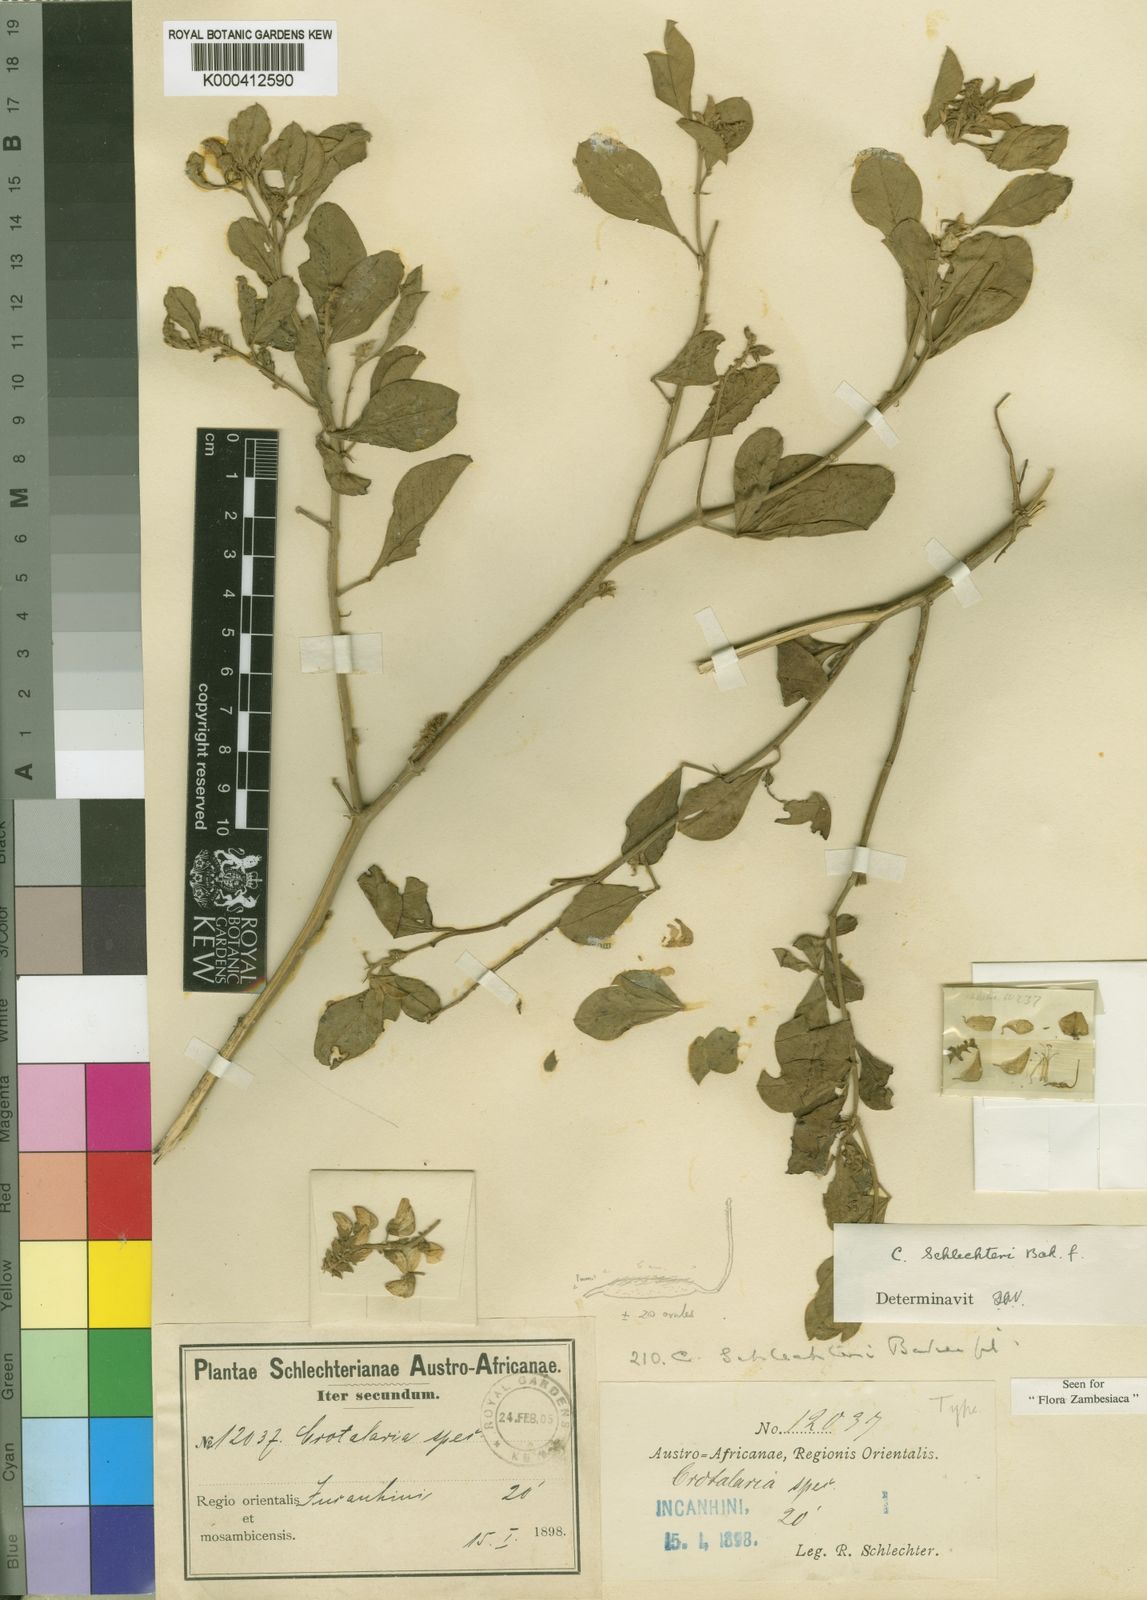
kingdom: Plantae
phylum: Tracheophyta
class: Magnoliopsida
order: Fabales
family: Fabaceae
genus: Crotalaria
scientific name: Crotalaria schlechteri
